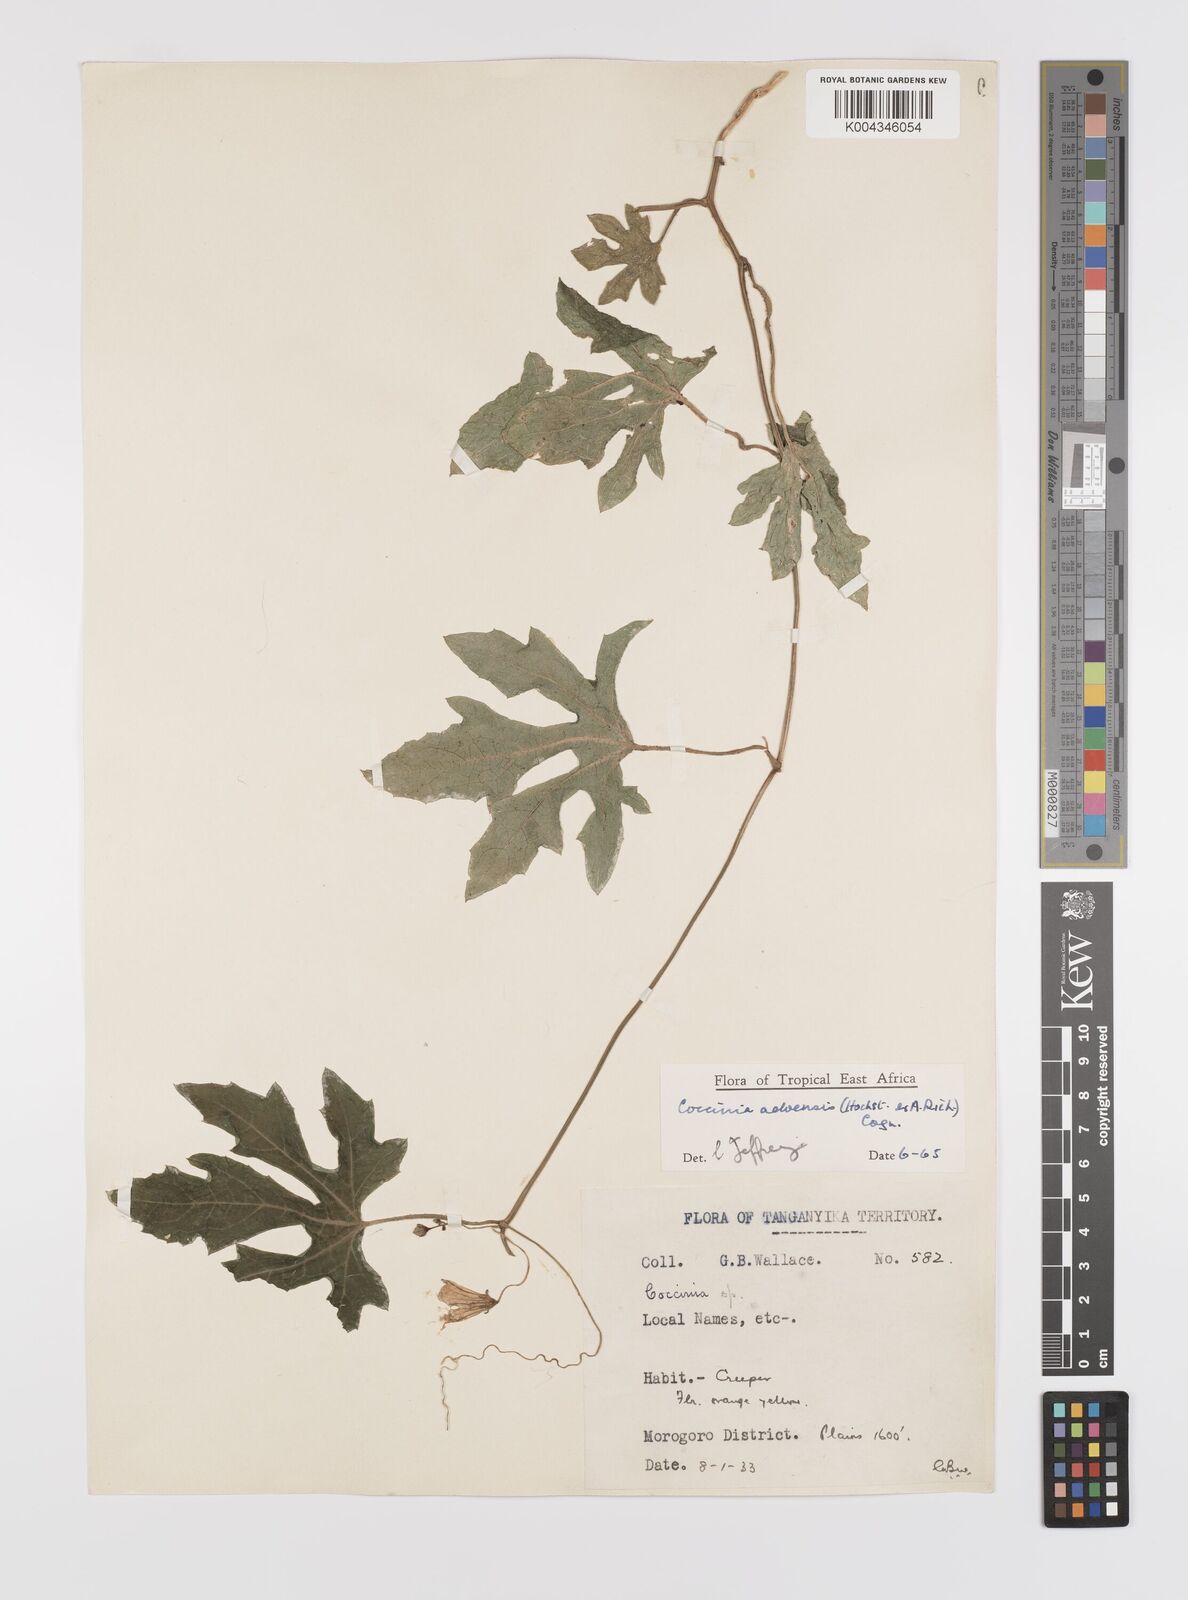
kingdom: Plantae
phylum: Tracheophyta
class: Magnoliopsida
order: Cucurbitales
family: Cucurbitaceae
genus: Coccinia
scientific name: Coccinia adoensis
